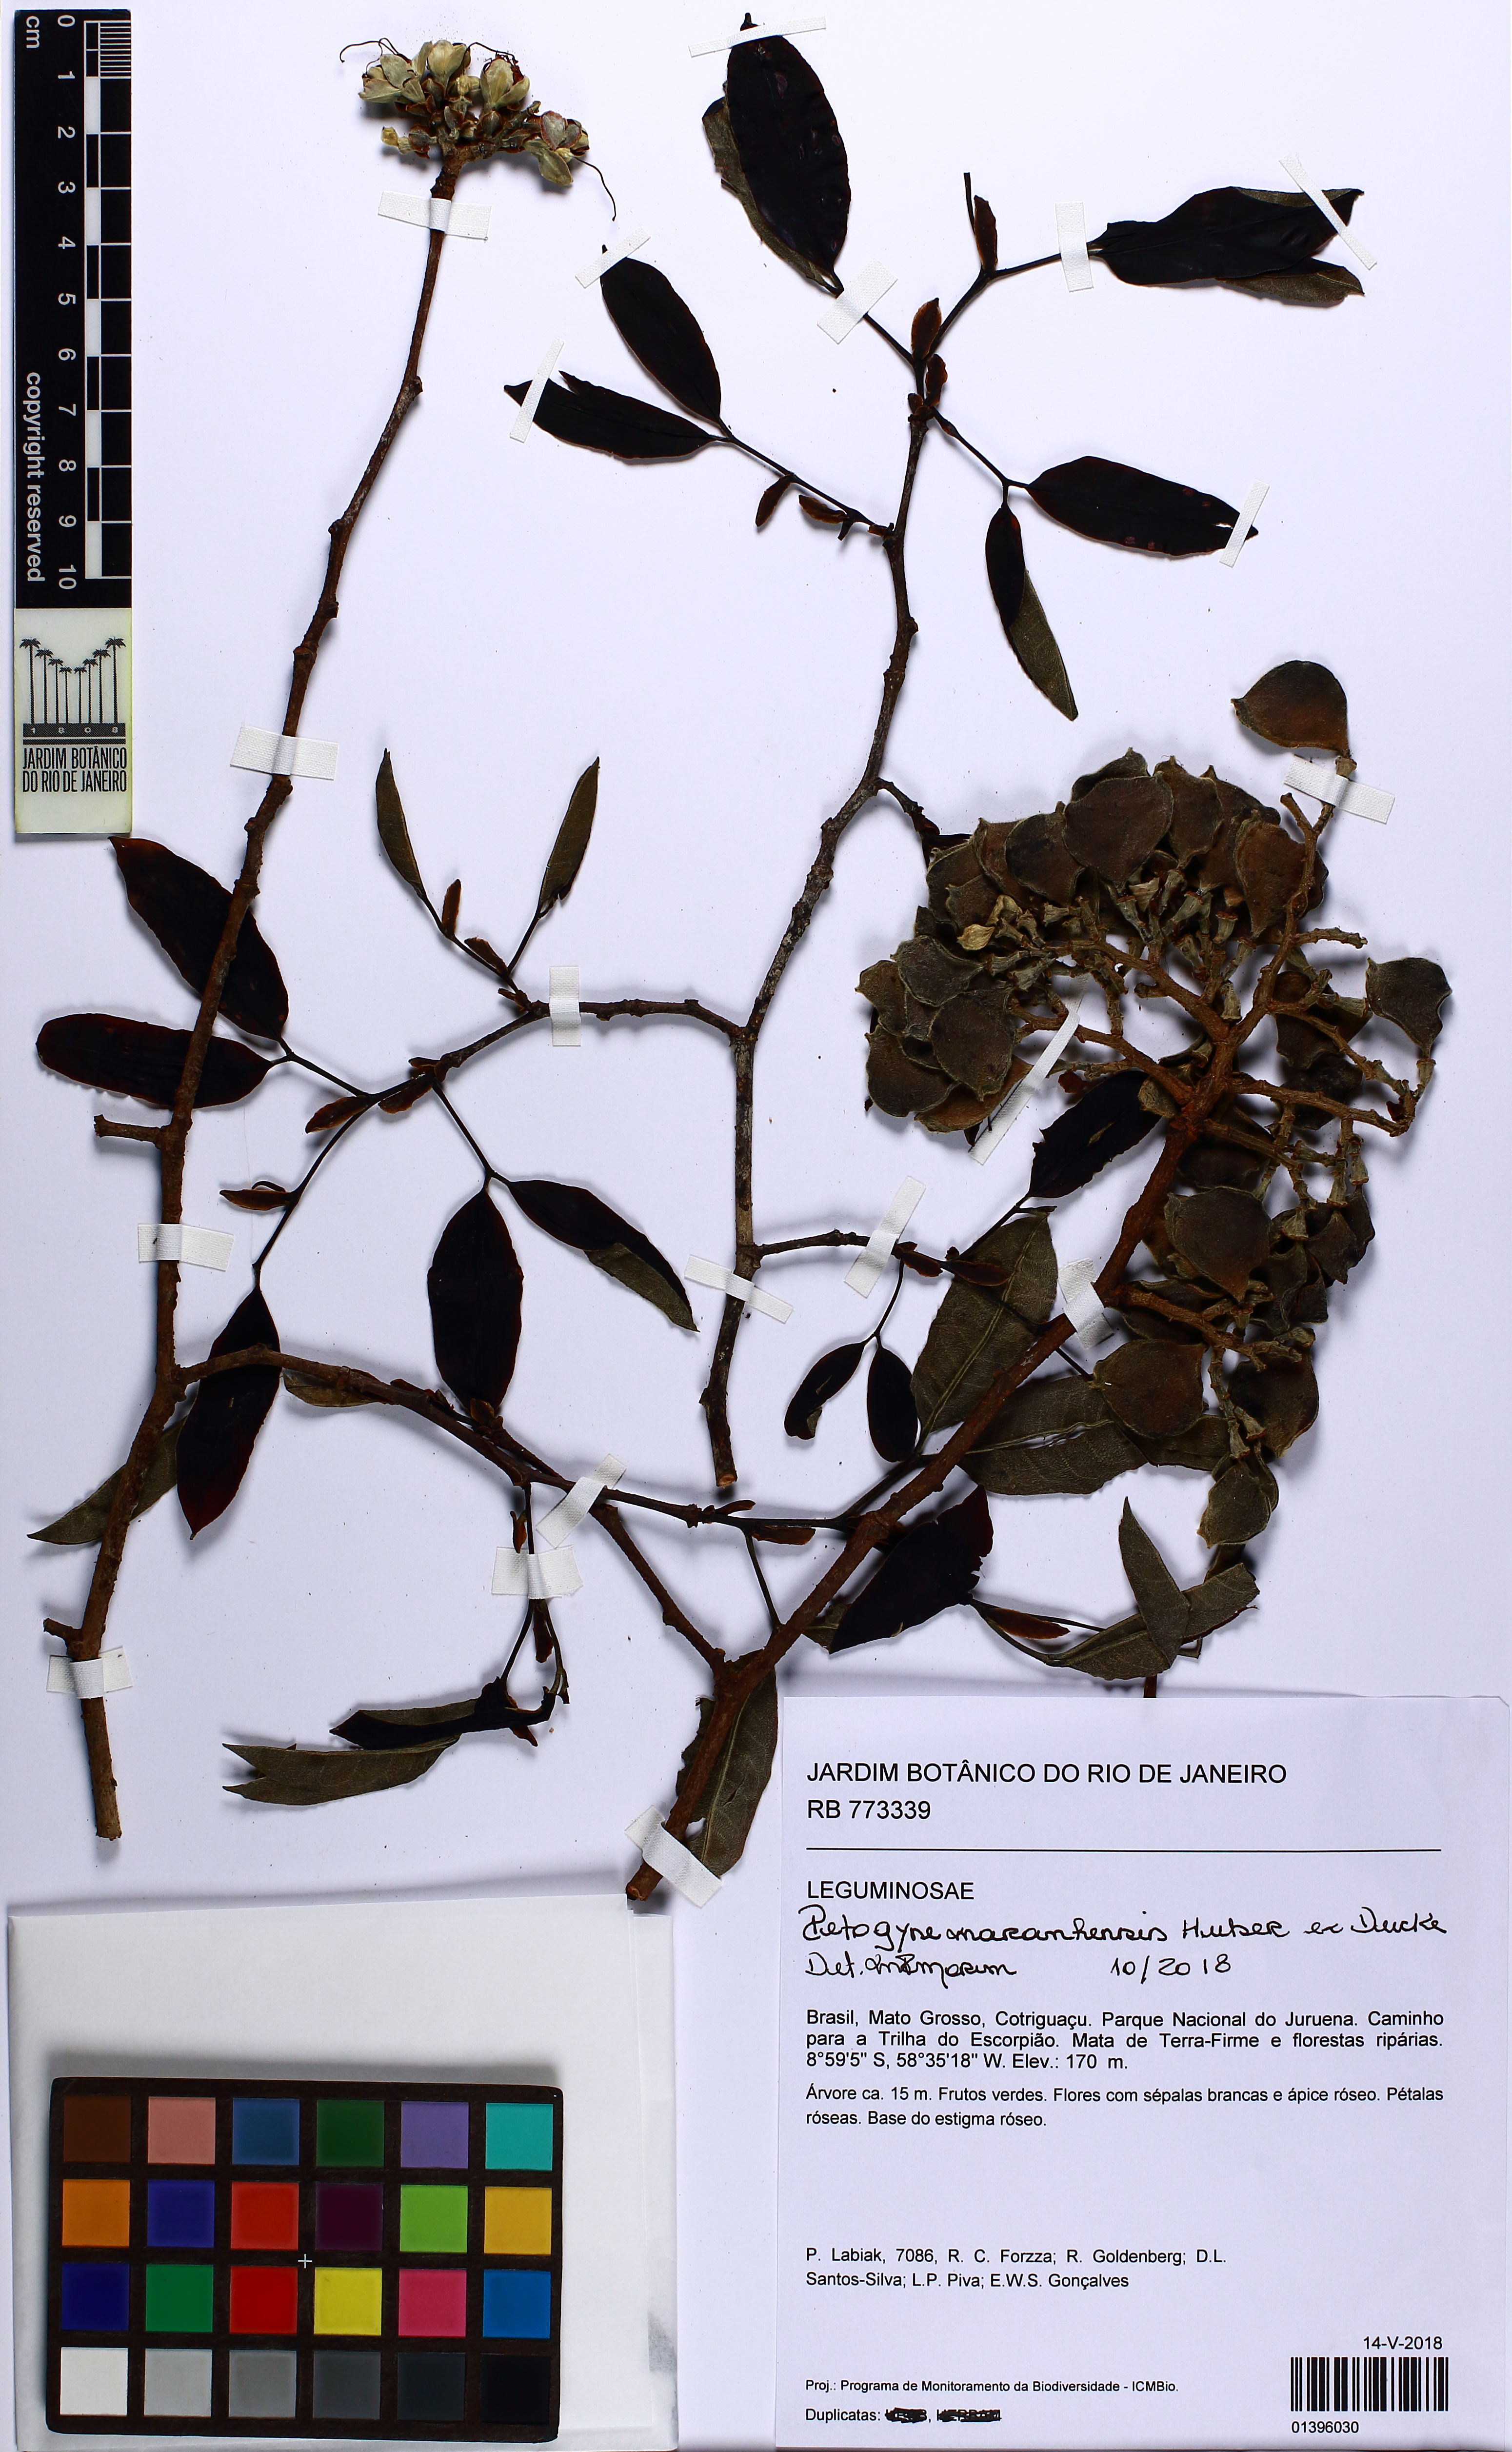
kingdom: Plantae
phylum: Tracheophyta
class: Magnoliopsida
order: Fabales
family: Fabaceae
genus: Peltogyne
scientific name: Peltogyne maranhensis
